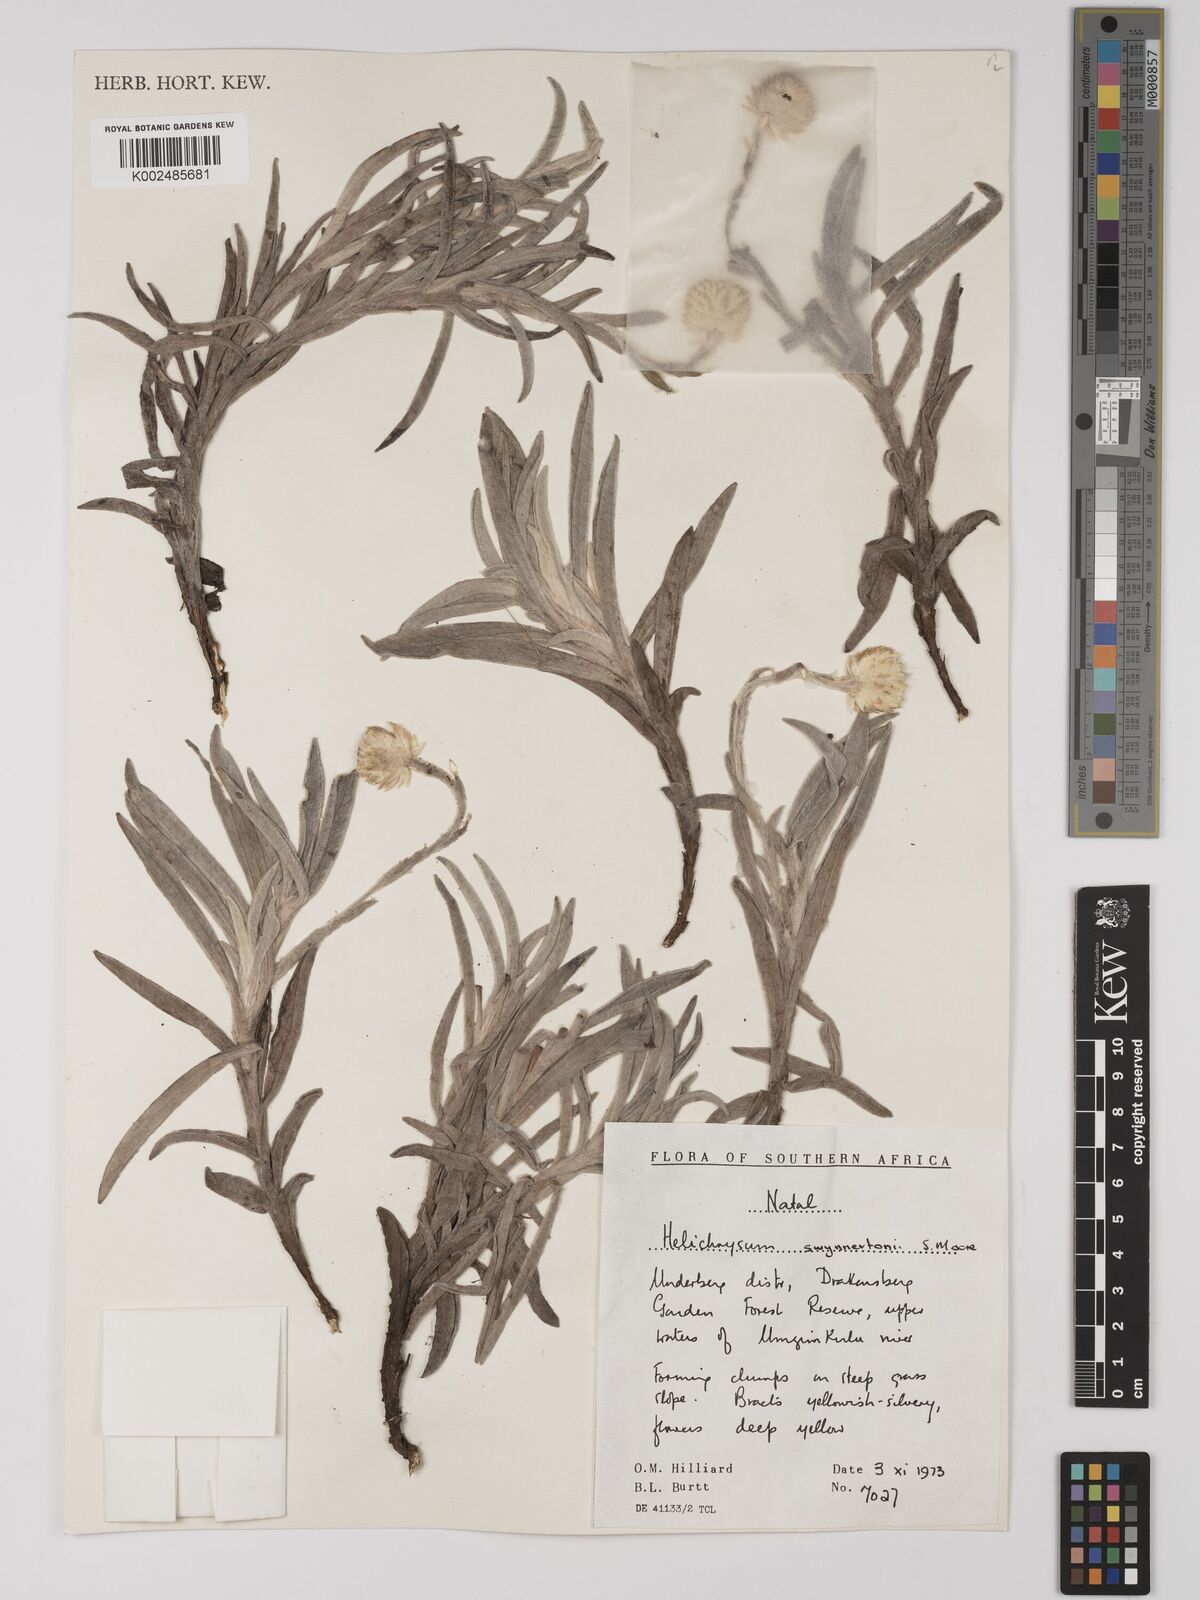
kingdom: Plantae
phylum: Tracheophyta
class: Magnoliopsida
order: Asterales
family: Asteraceae
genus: Helichrysum
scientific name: Helichrysum swynnertonii
